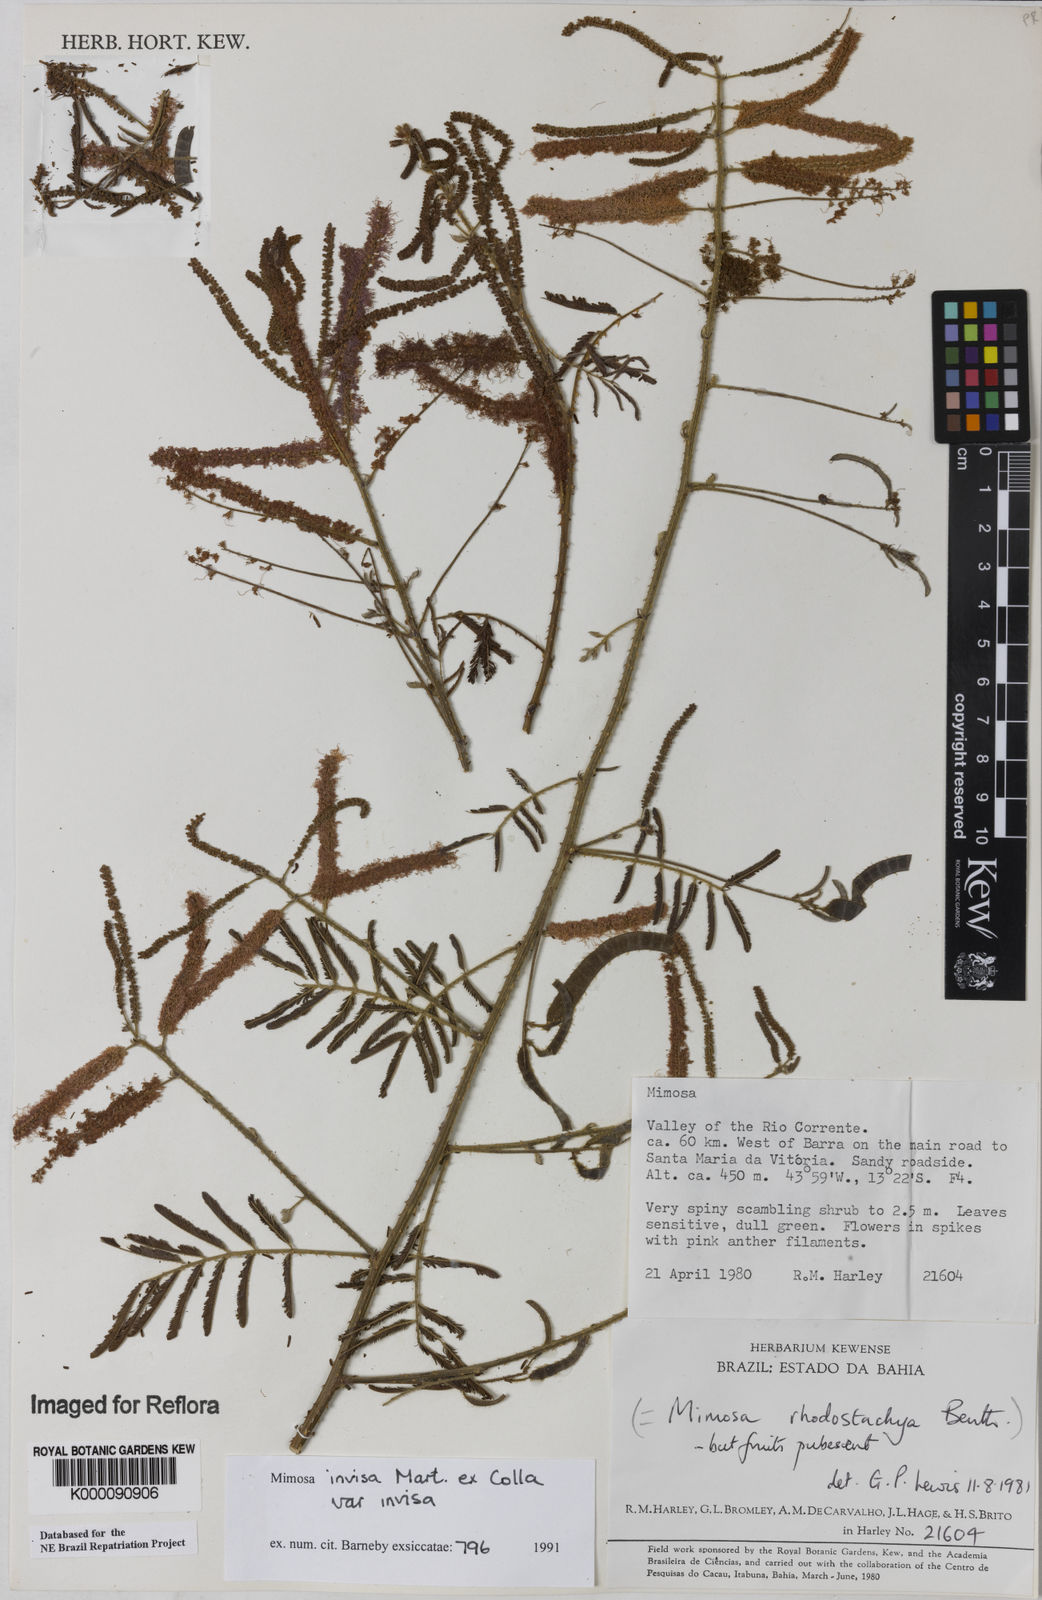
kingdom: Plantae
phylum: Tracheophyta
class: Magnoliopsida
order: Fabales
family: Fabaceae
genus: Mimosa
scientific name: Mimosa invisa
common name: Creeping sensitive-plant
